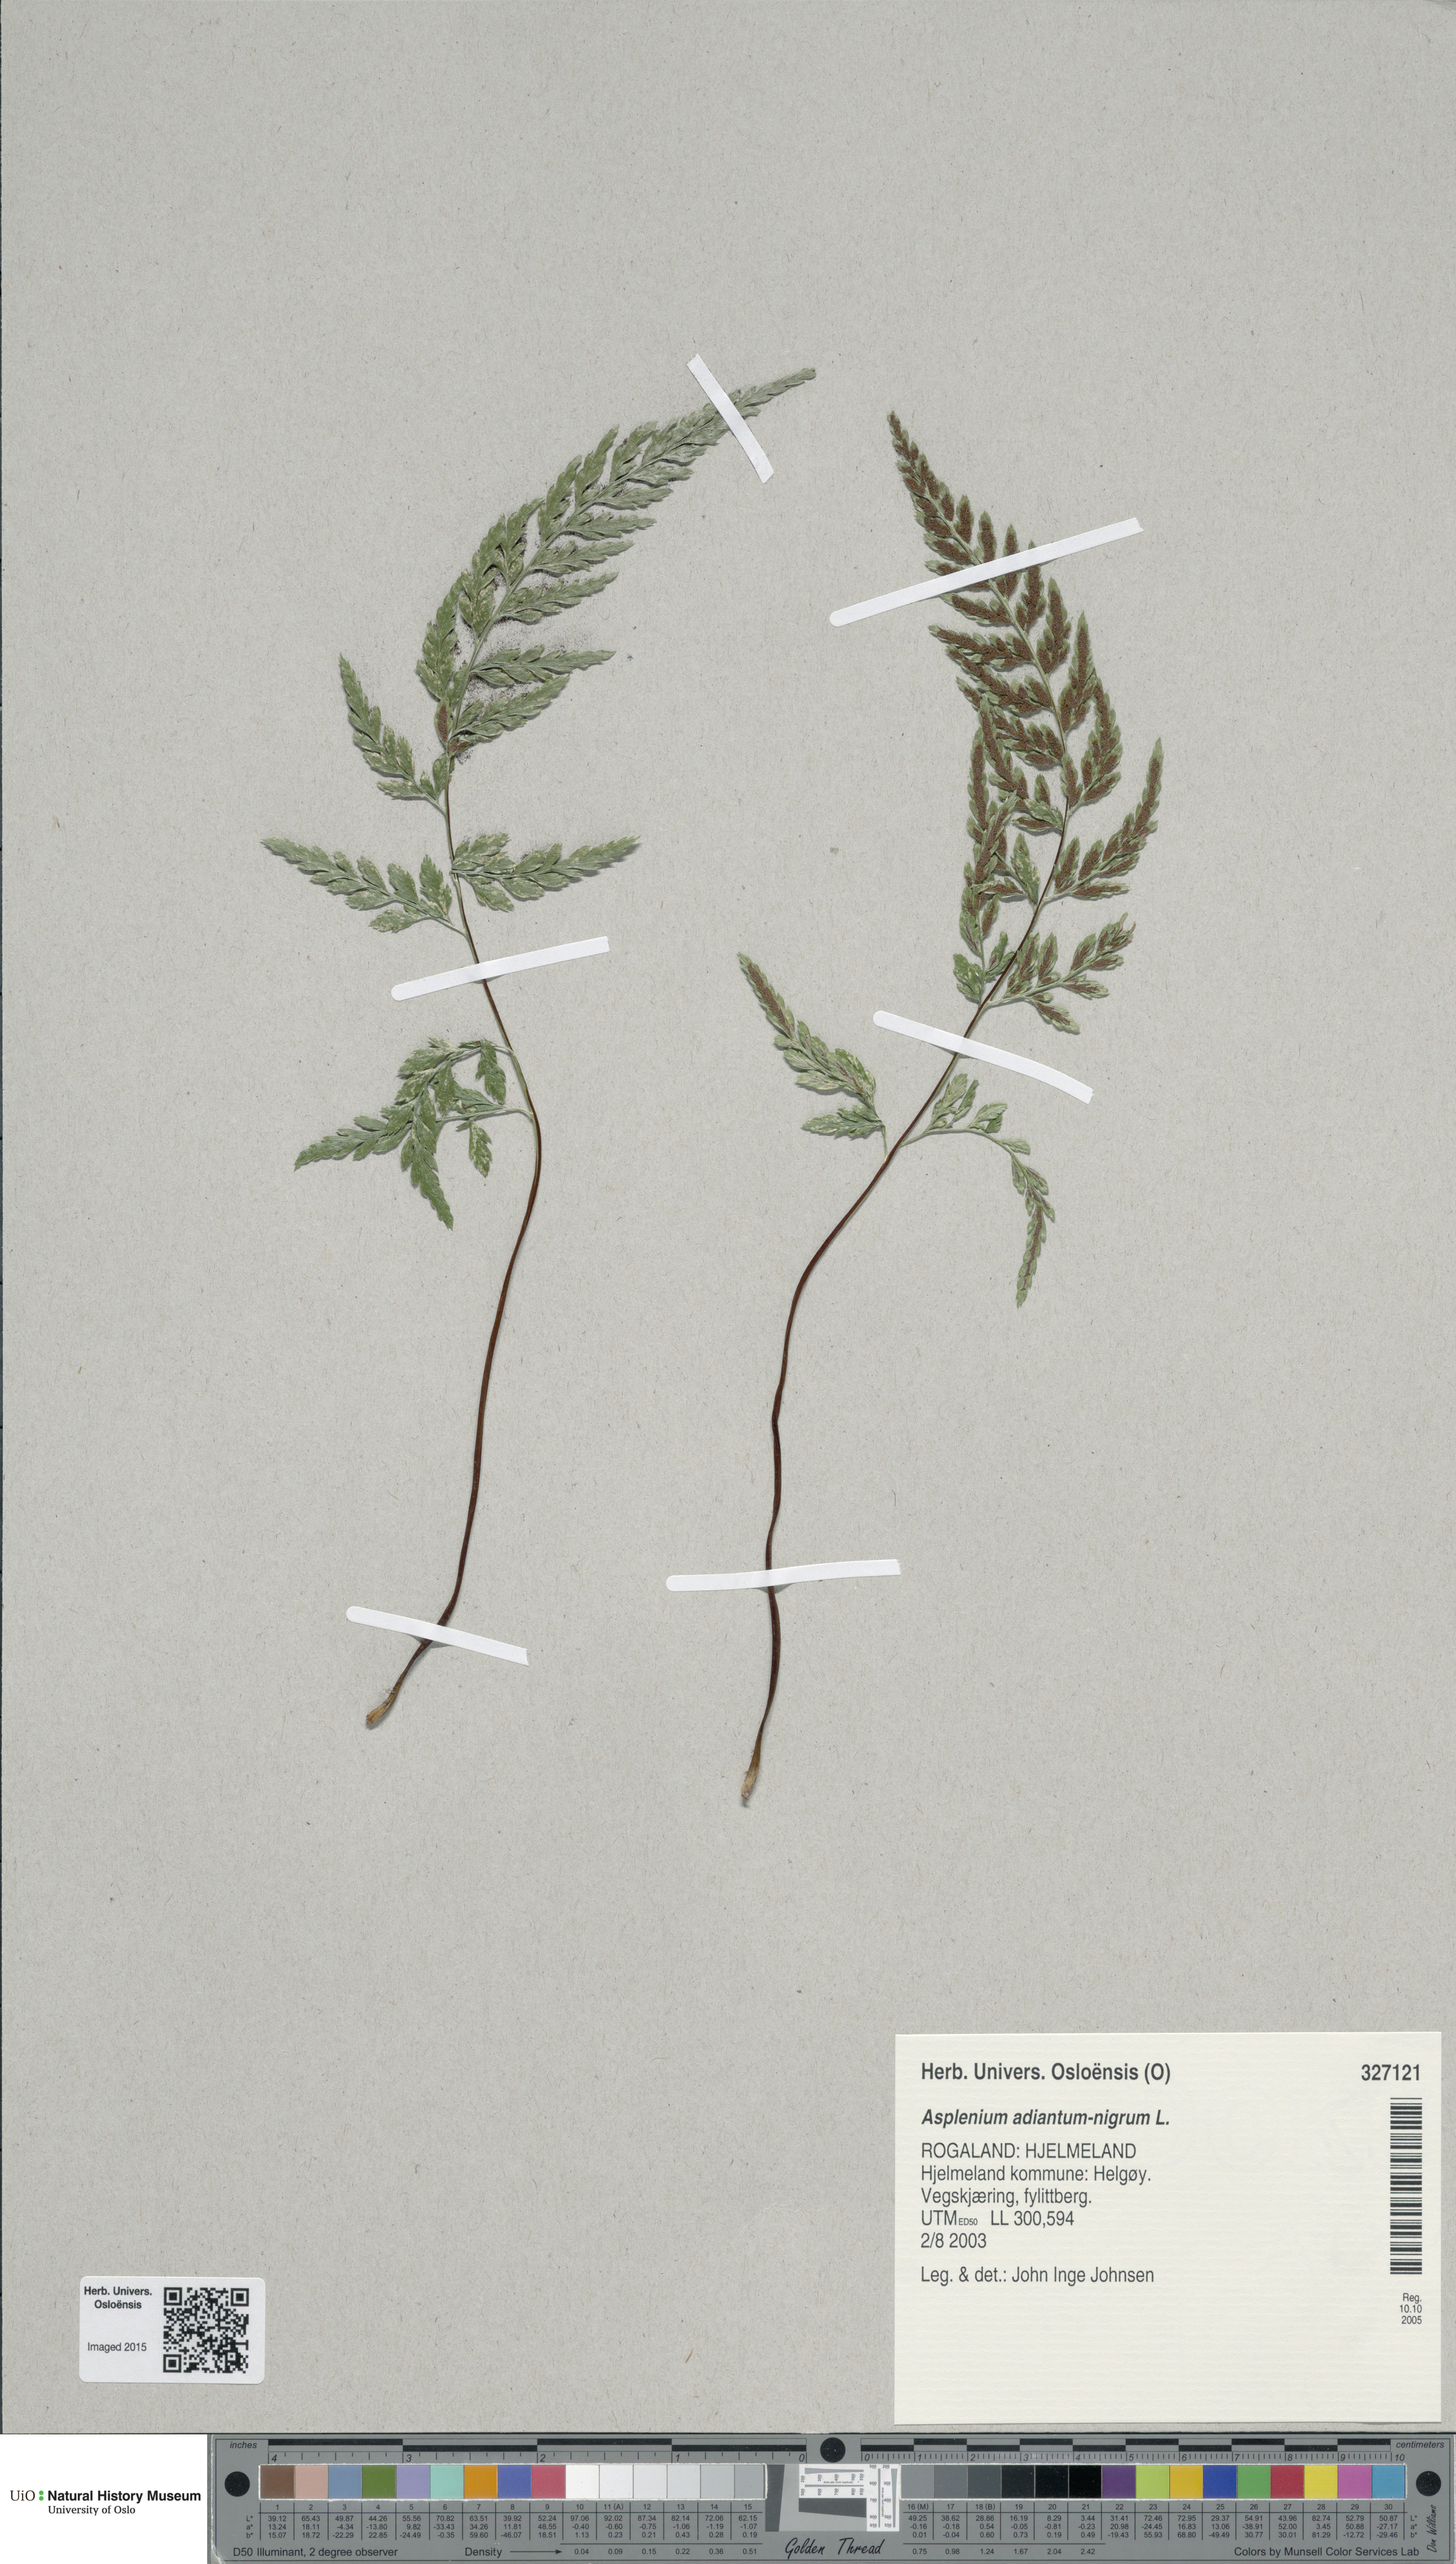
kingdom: Plantae
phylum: Tracheophyta
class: Polypodiopsida
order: Polypodiales
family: Aspleniaceae
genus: Asplenium
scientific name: Asplenium adiantum-nigrum
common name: Black spleenwort
